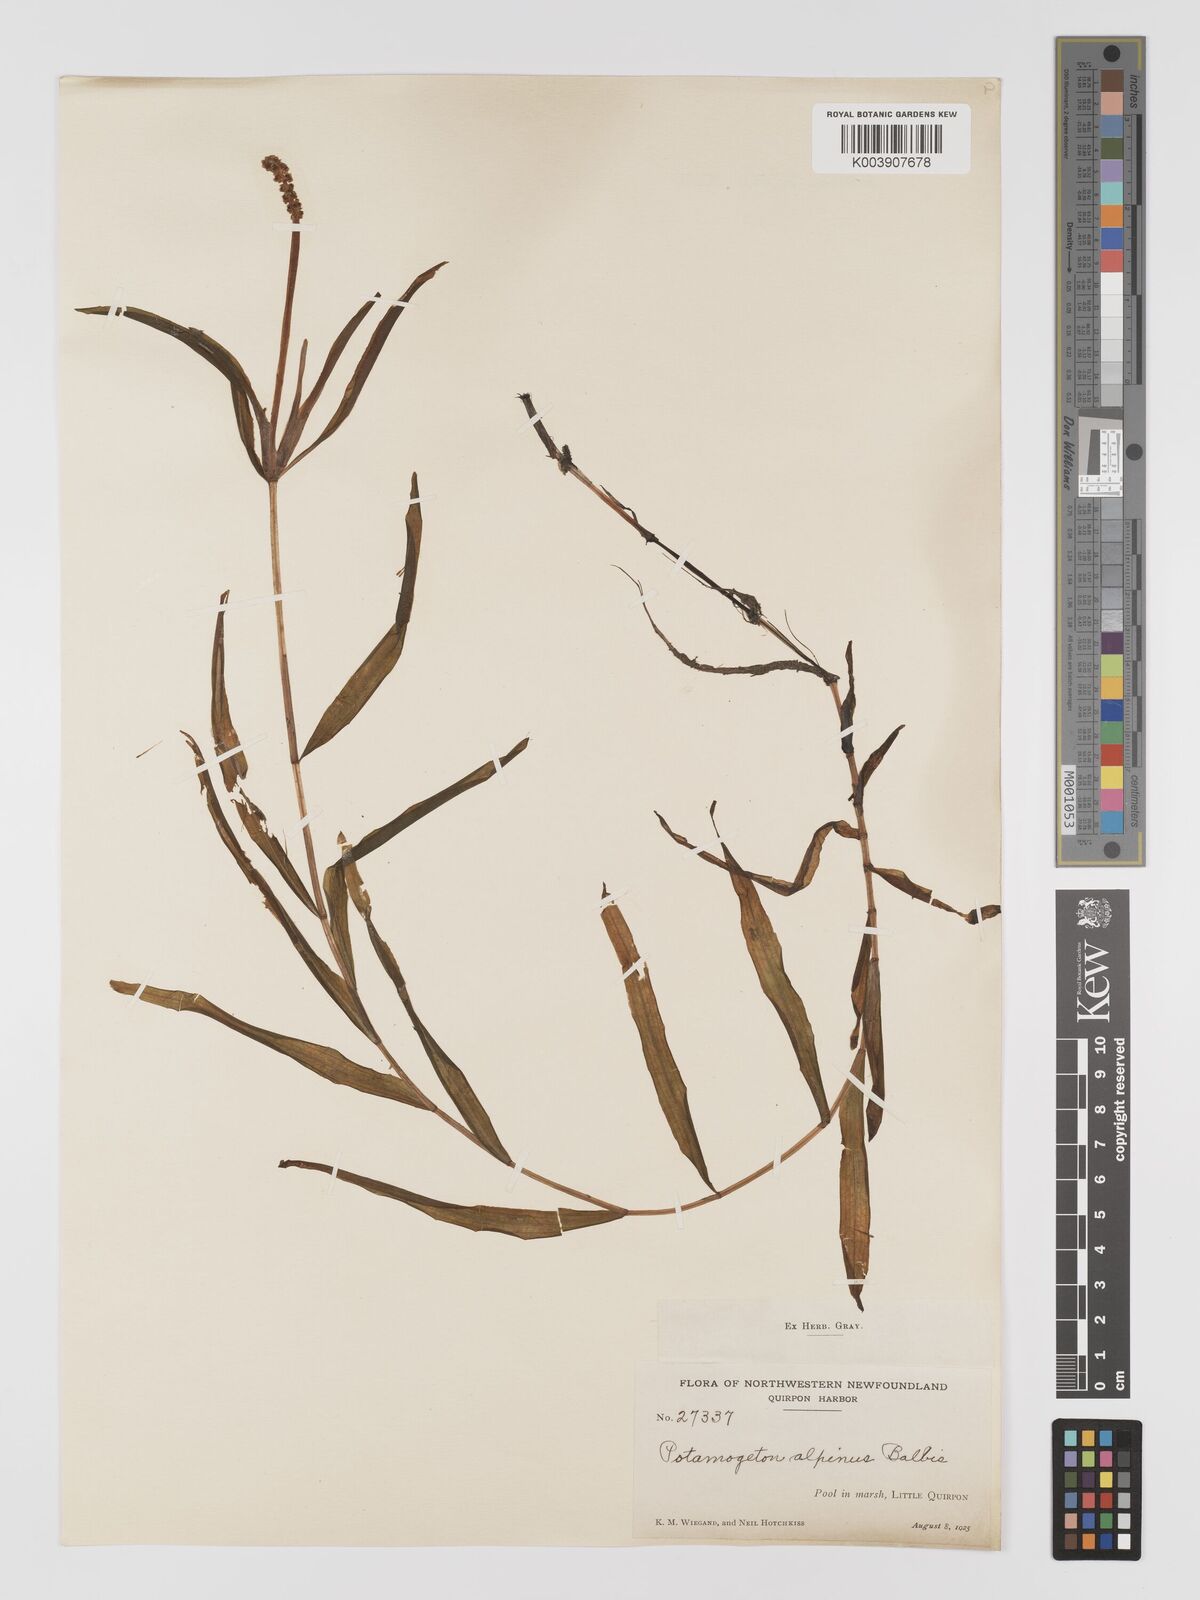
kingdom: Plantae
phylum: Tracheophyta
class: Liliopsida
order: Alismatales
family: Potamogetonaceae
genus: Potamogeton
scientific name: Potamogeton alpinus
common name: Red pondweed
